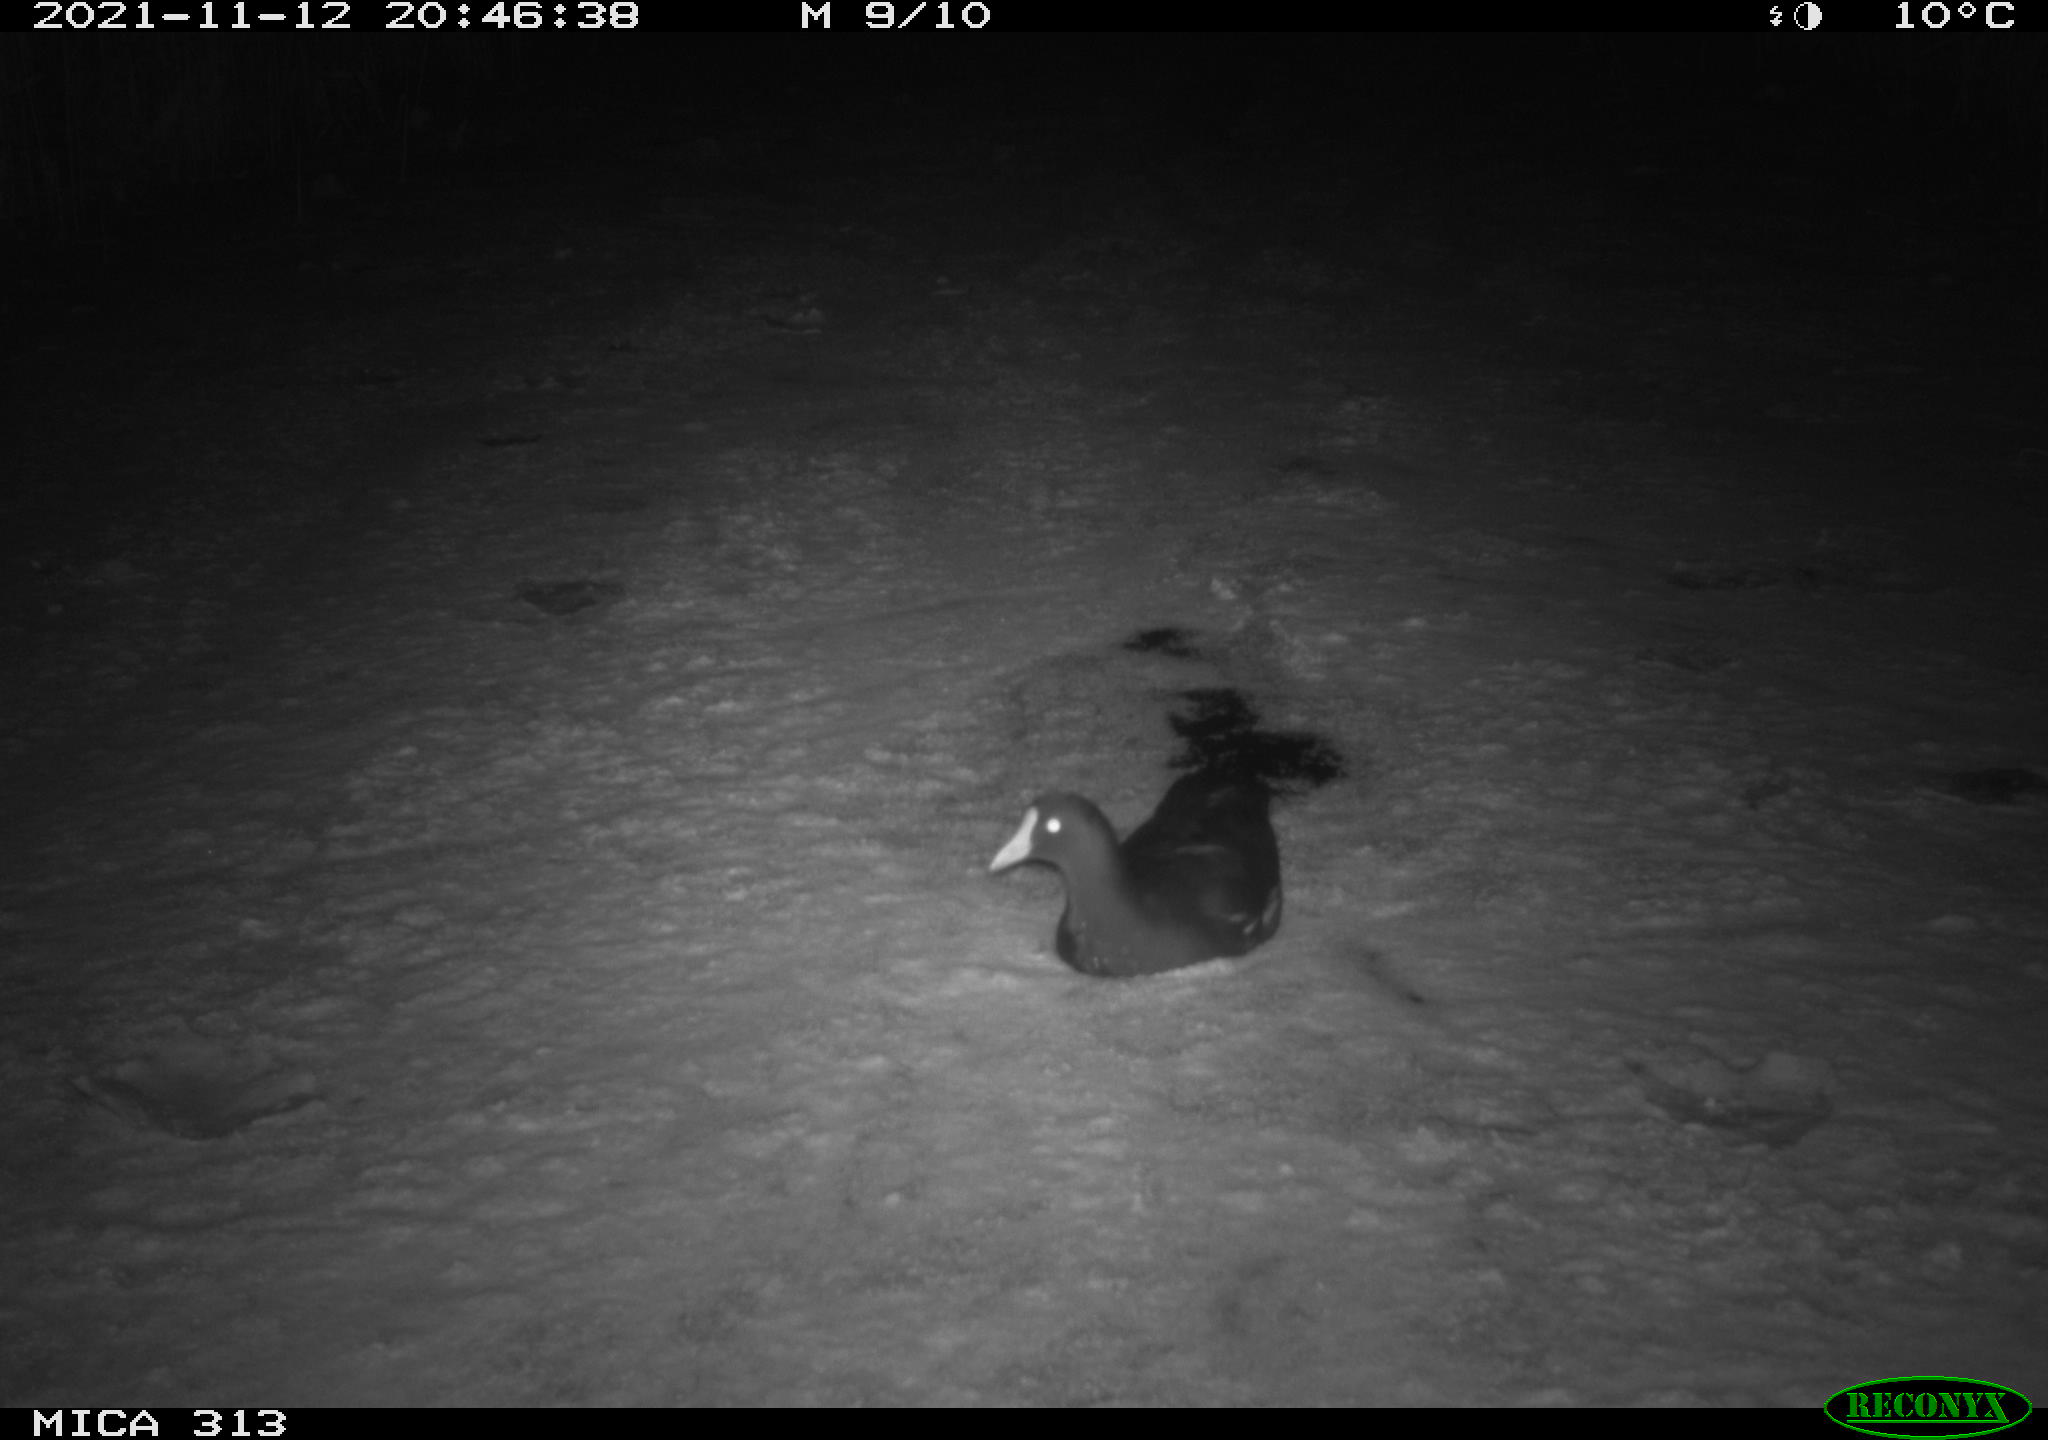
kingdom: Animalia
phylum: Chordata
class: Aves
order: Gruiformes
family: Rallidae
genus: Gallinula
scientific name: Gallinula chloropus
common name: Common moorhen
